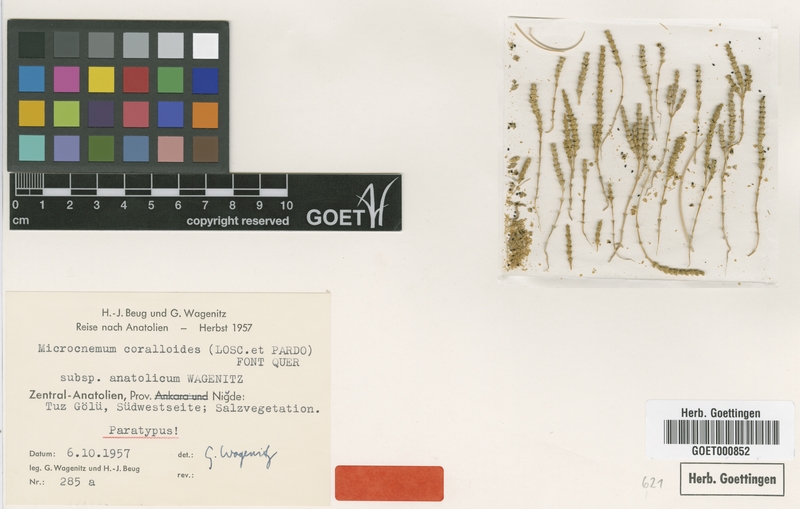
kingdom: Plantae
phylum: Tracheophyta
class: Magnoliopsida
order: Caryophyllales
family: Amaranthaceae
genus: Microcnemum
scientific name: Microcnemum coralloides
